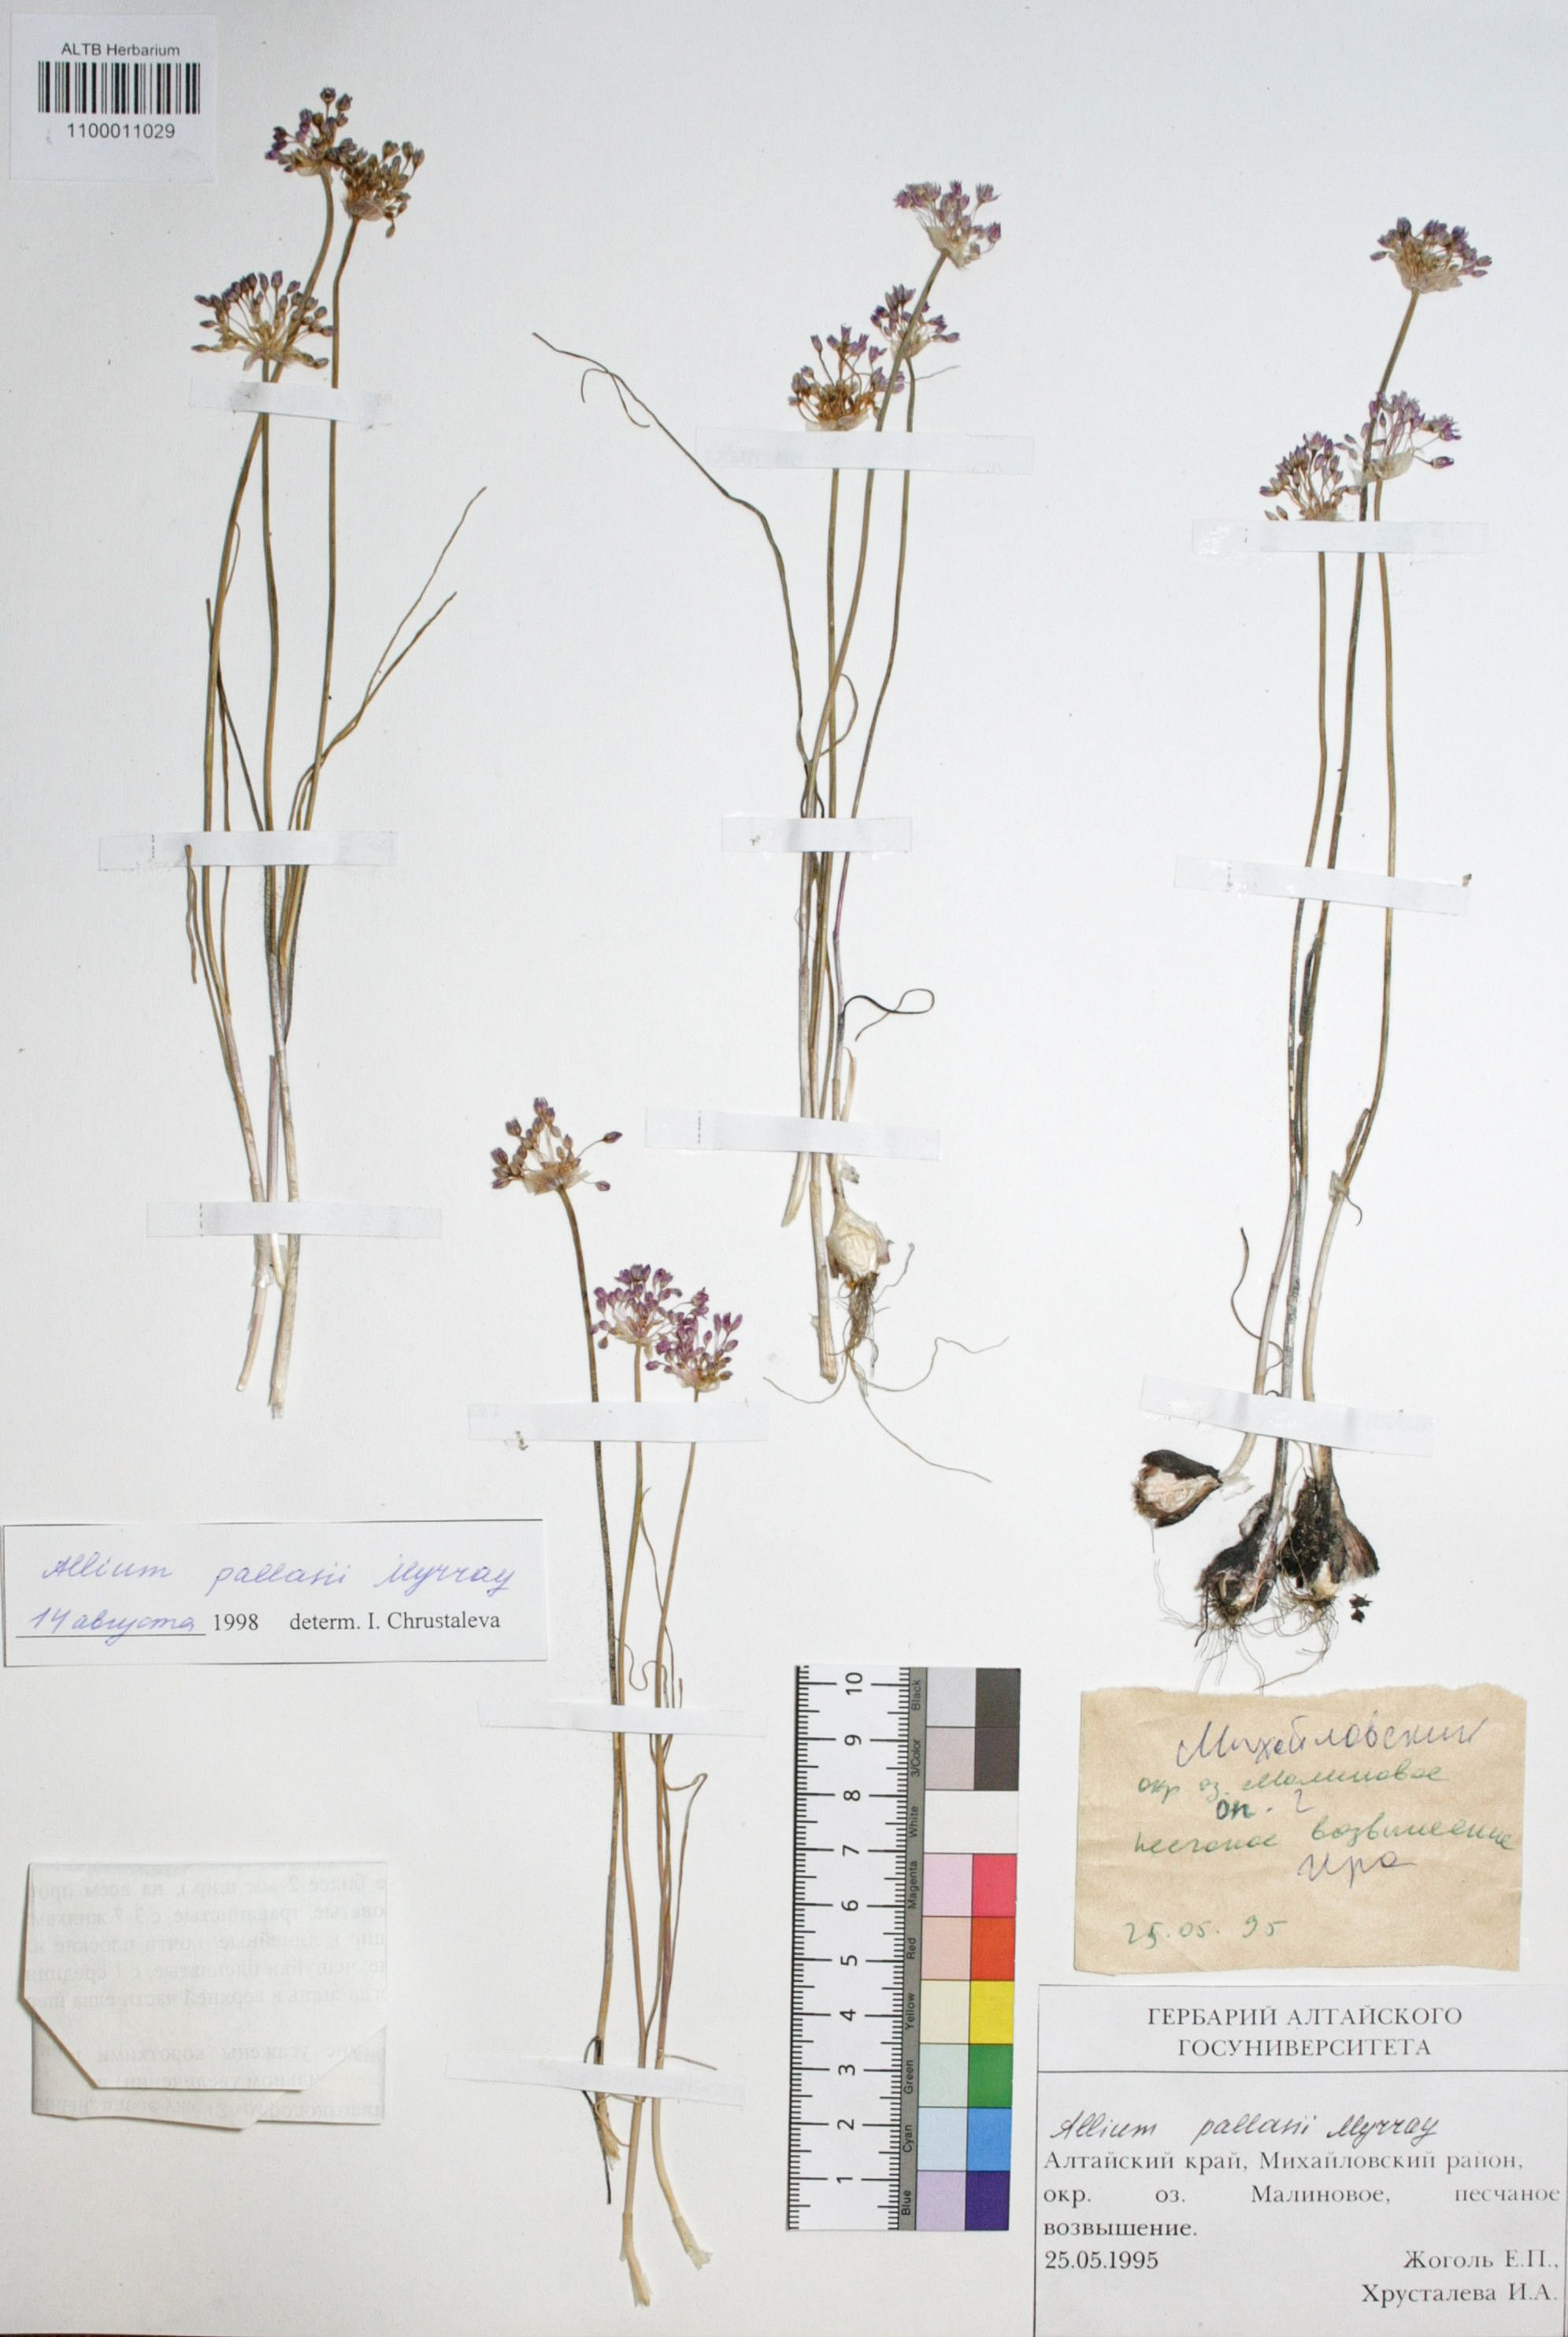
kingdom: Plantae
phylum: Tracheophyta
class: Liliopsida
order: Asparagales
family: Amaryllidaceae
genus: Allium
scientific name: Allium pallasii
